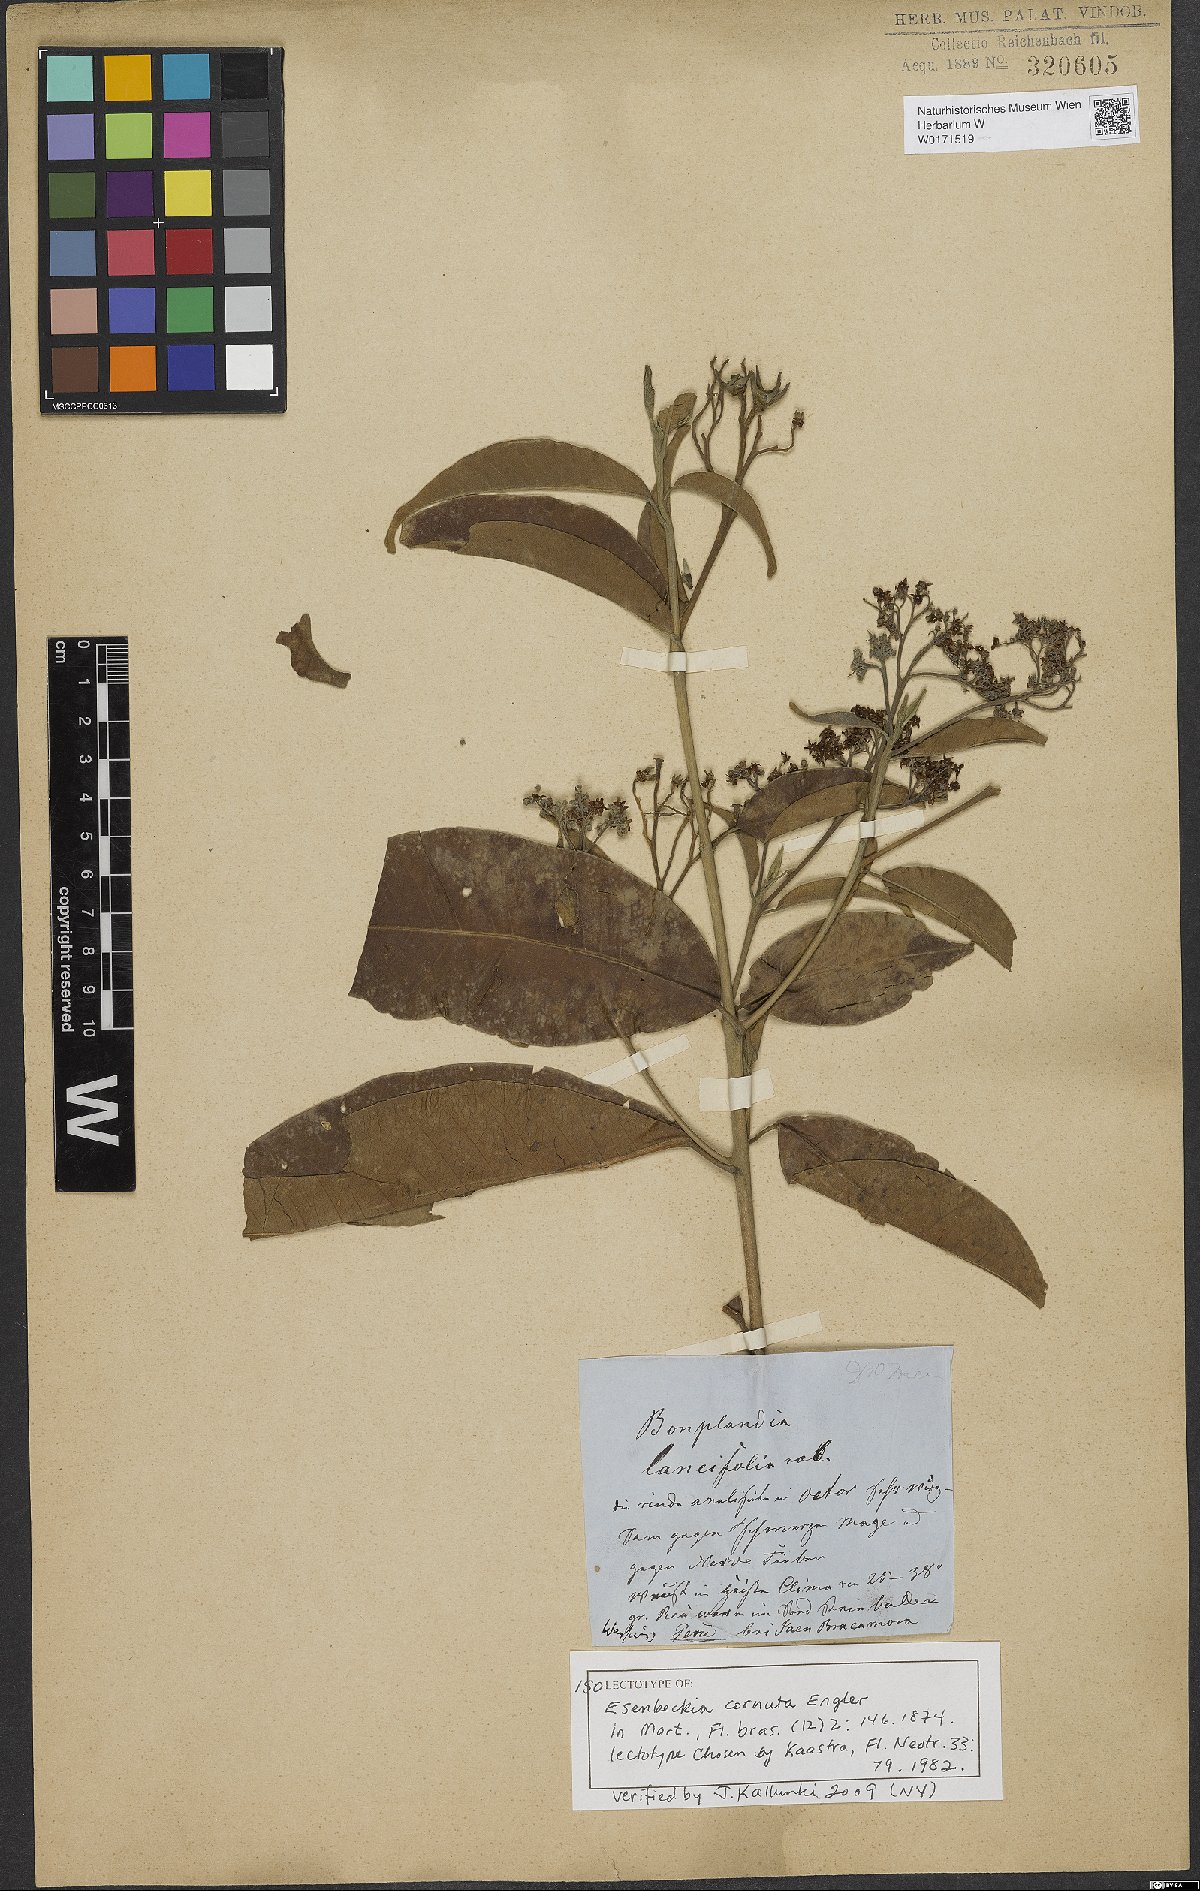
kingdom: Animalia
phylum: Arthropoda
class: Insecta
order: Diptera
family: Tabanidae
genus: Esenbeckia
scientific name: Esenbeckia cornuta
